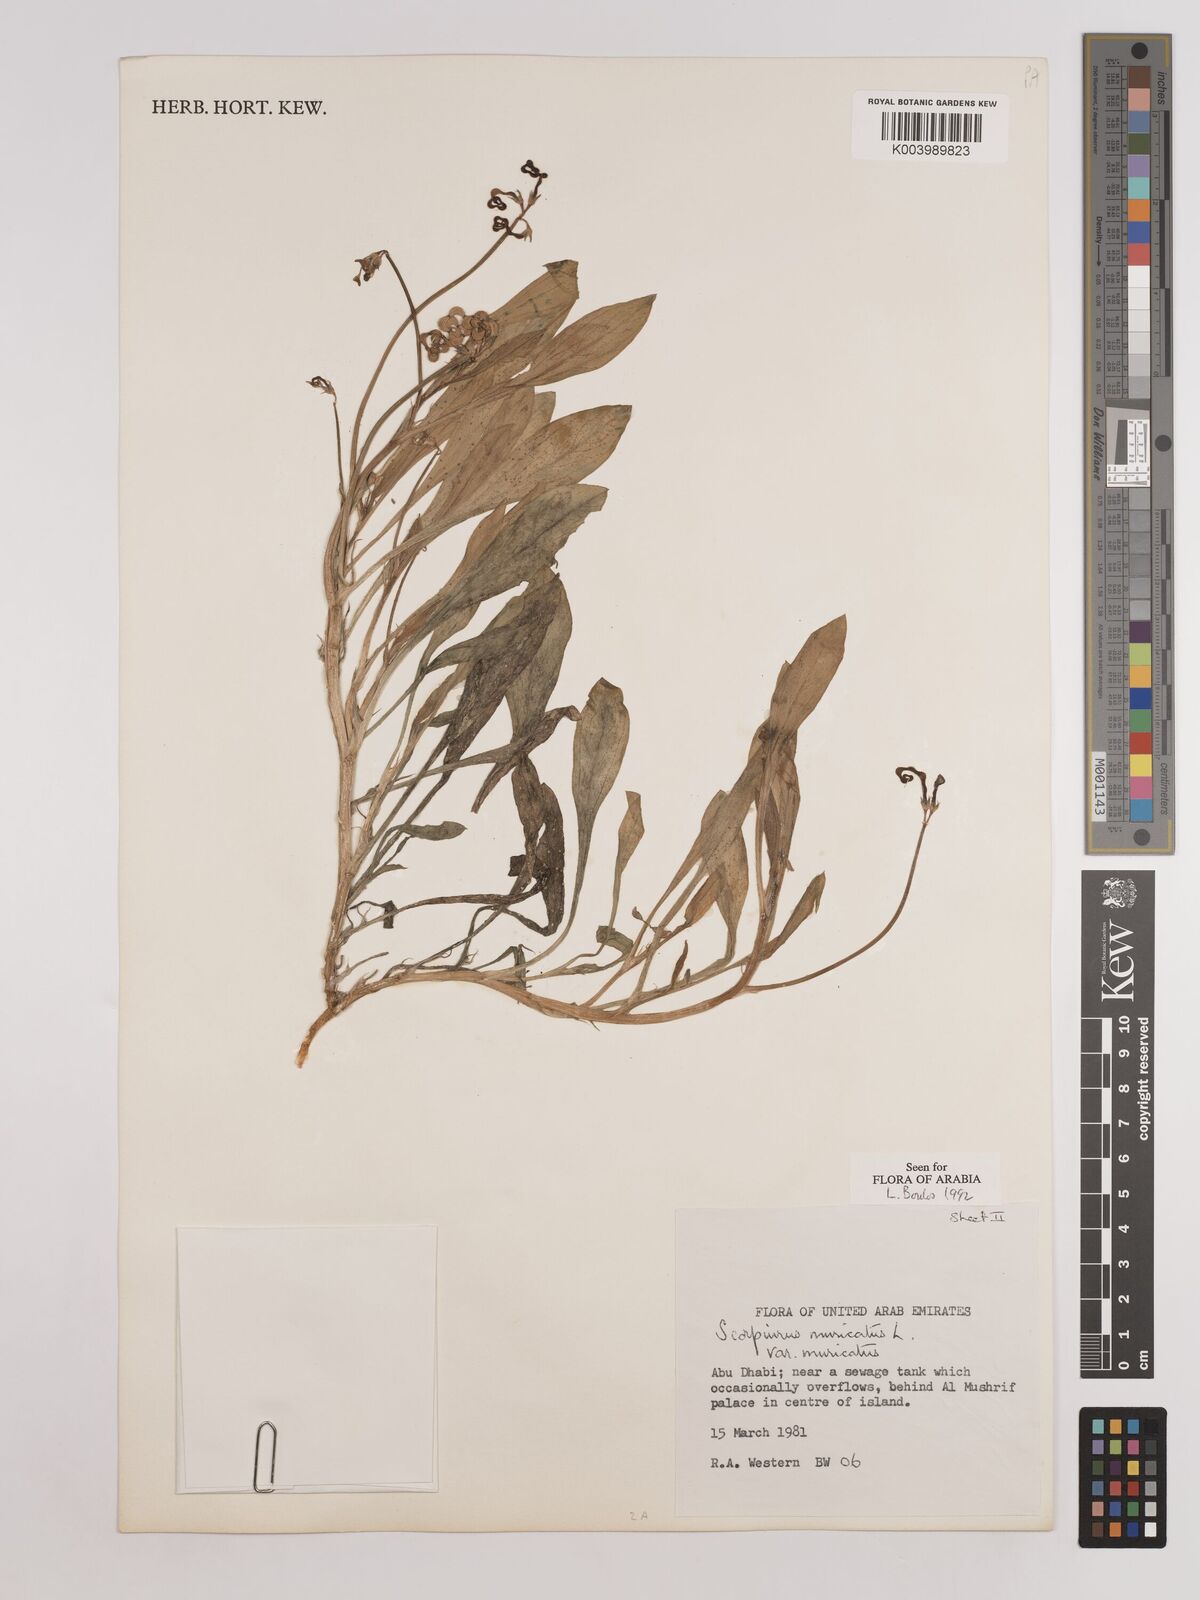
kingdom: Plantae
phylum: Tracheophyta
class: Magnoliopsida
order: Fabales
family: Fabaceae
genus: Scorpiurus
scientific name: Scorpiurus muricatus
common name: Caterpillar-plant
